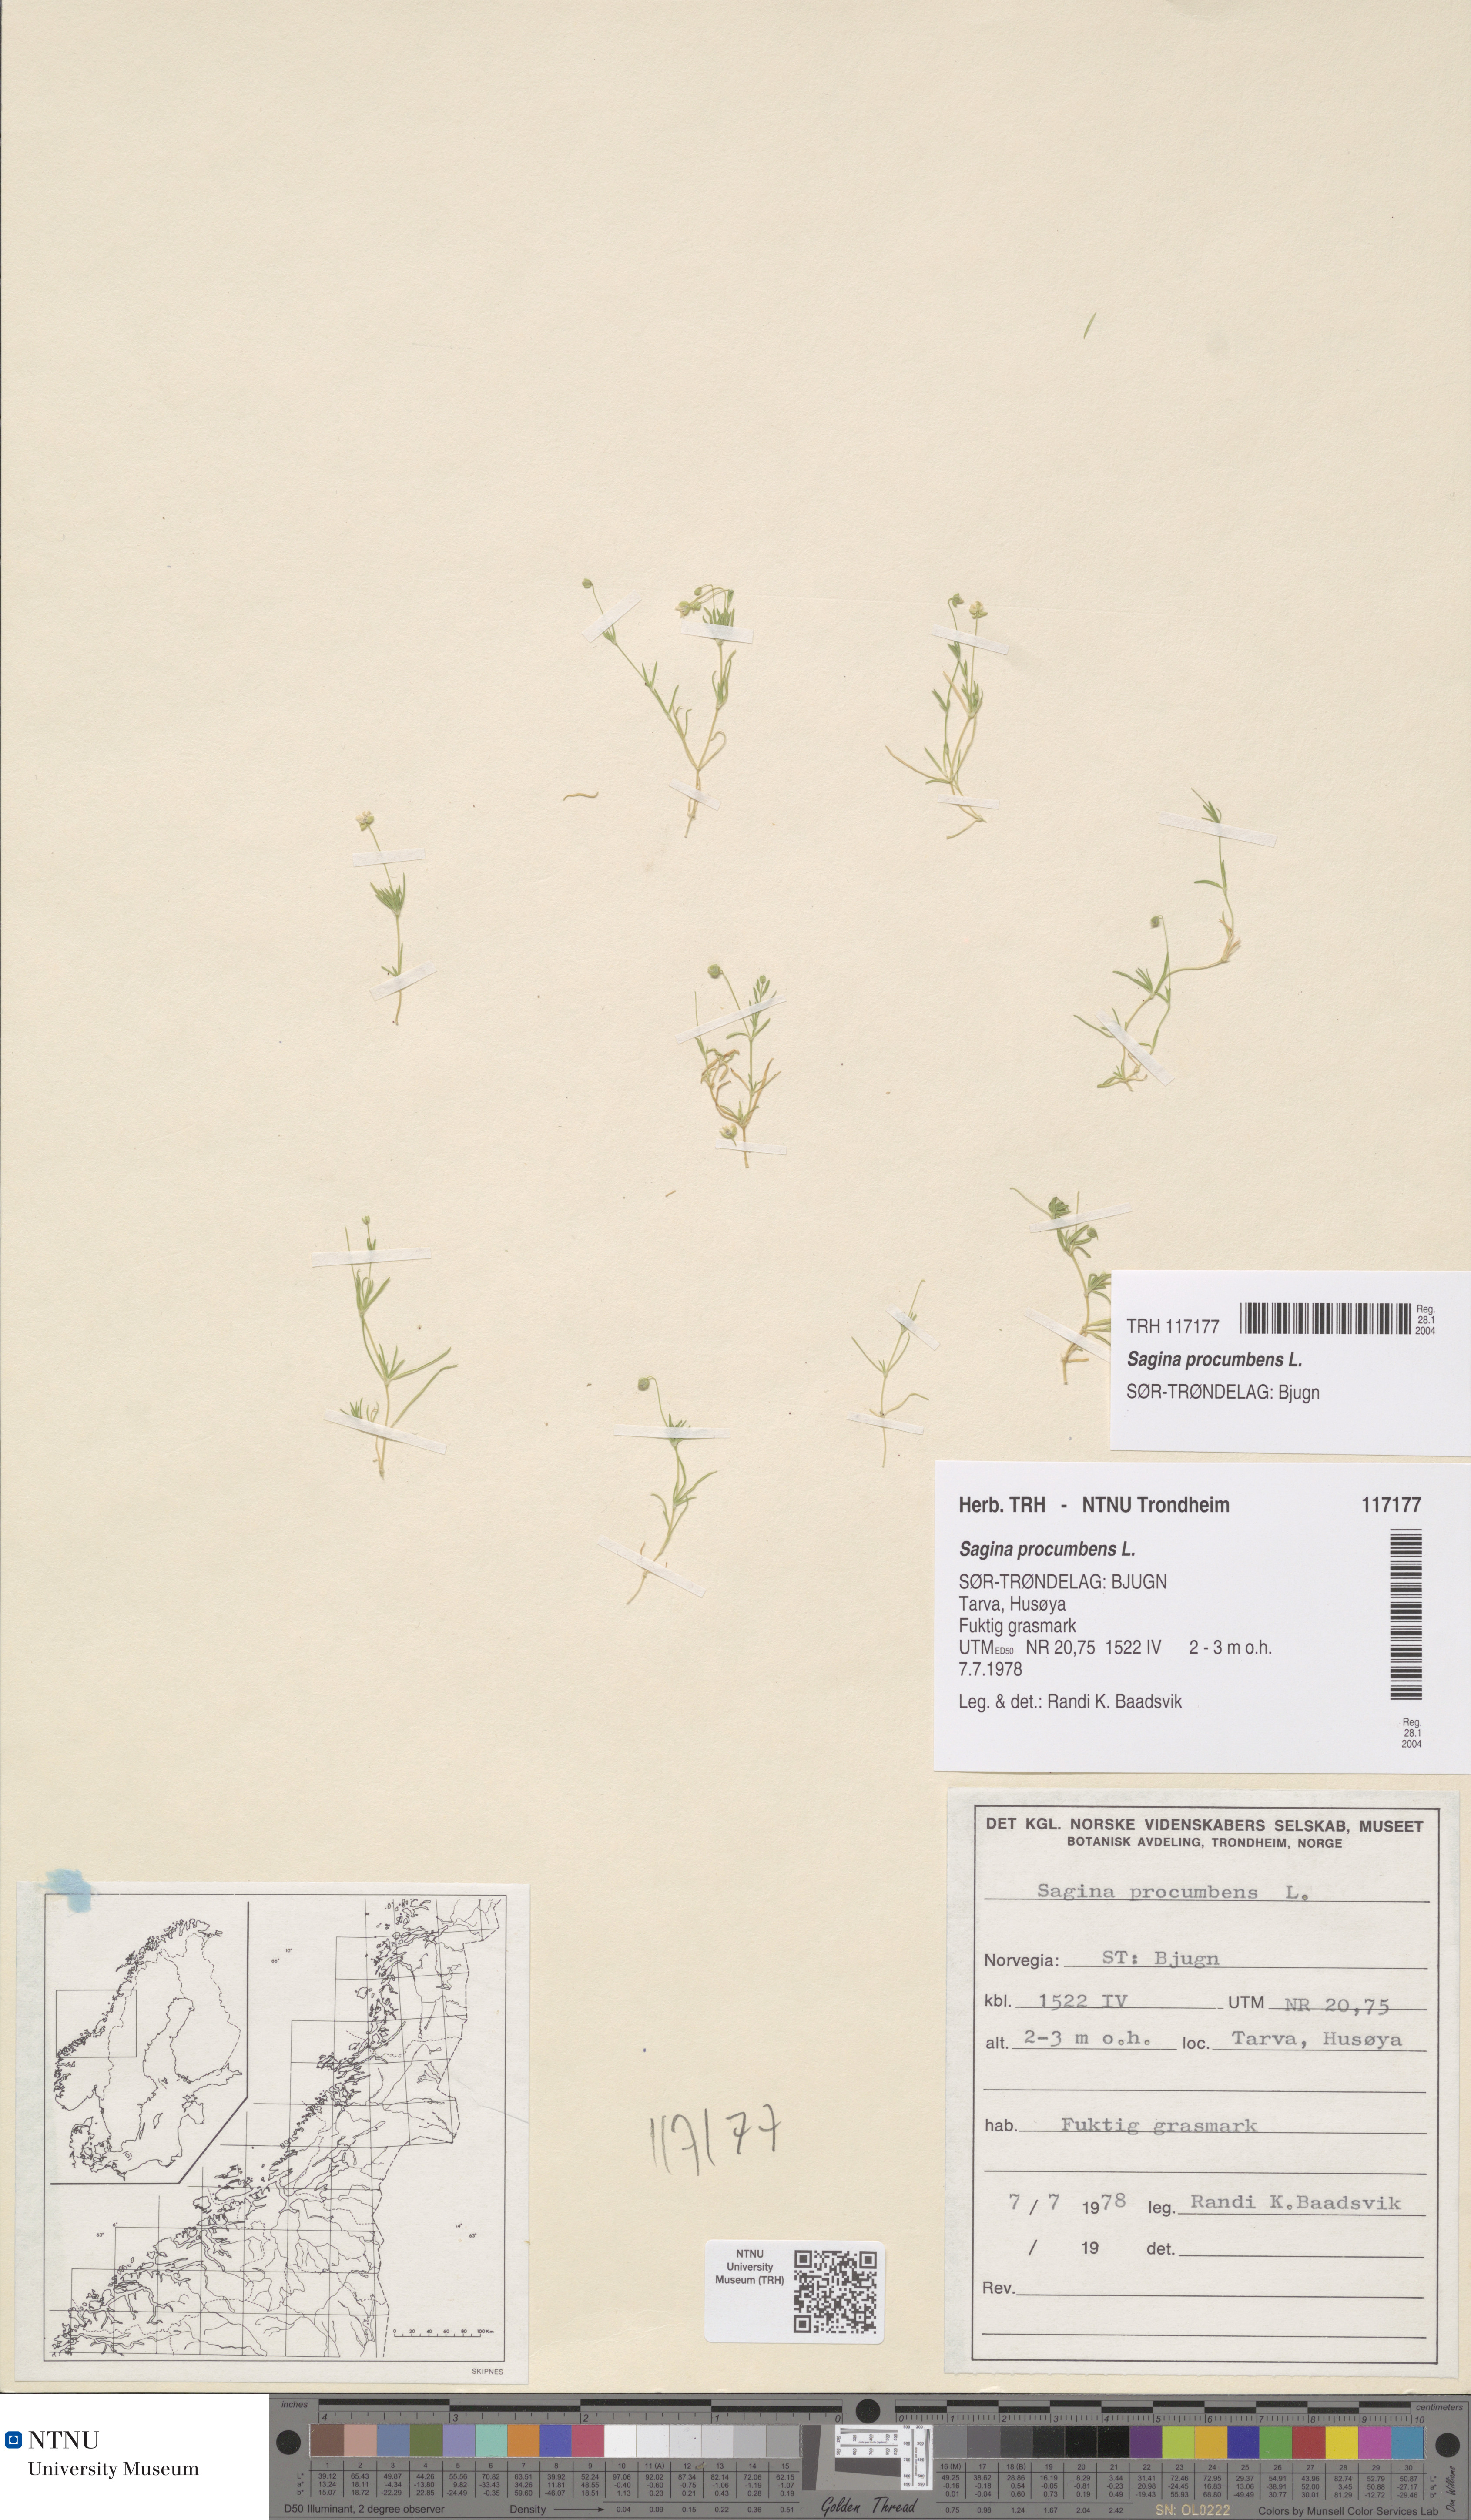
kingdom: Plantae
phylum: Tracheophyta
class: Magnoliopsida
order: Caryophyllales
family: Caryophyllaceae
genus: Sagina
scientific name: Sagina procumbens
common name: Procumbent pearlwort
